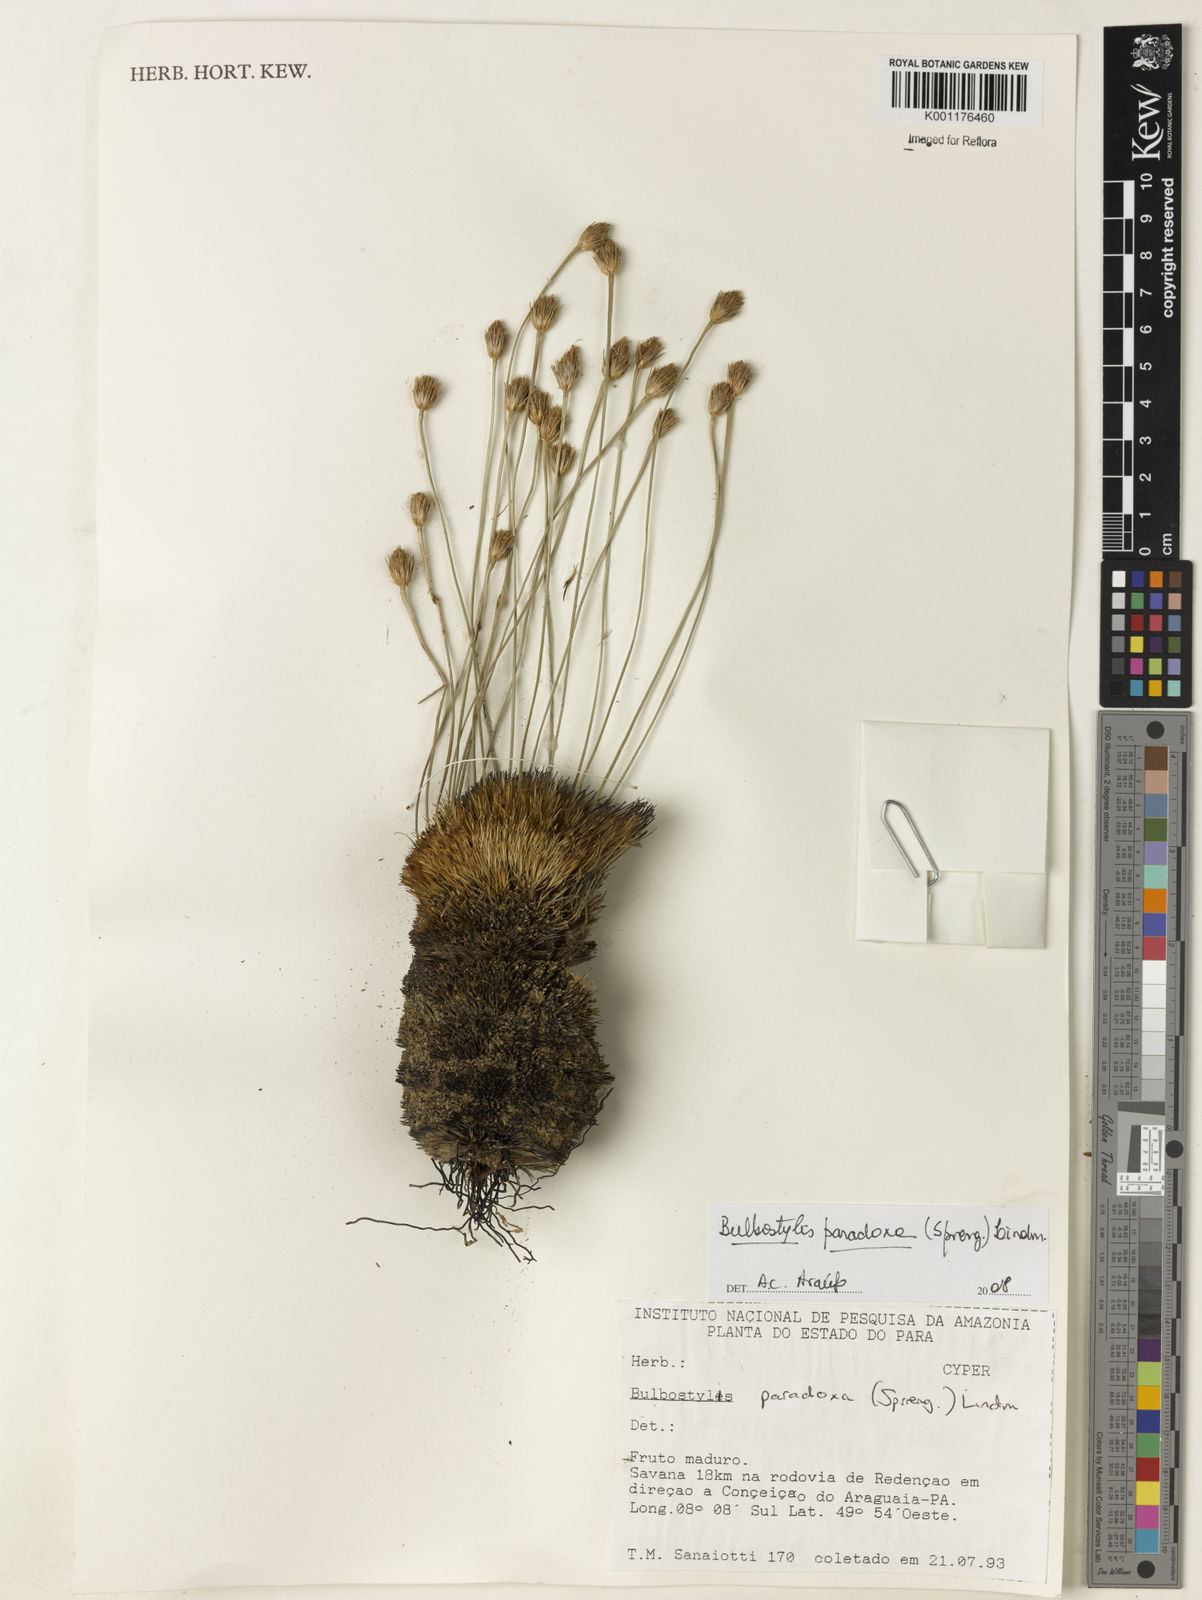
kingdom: Plantae
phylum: Tracheophyta
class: Liliopsida
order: Poales
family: Cyperaceae
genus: Bulbostylis
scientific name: Bulbostylis paradoxa
